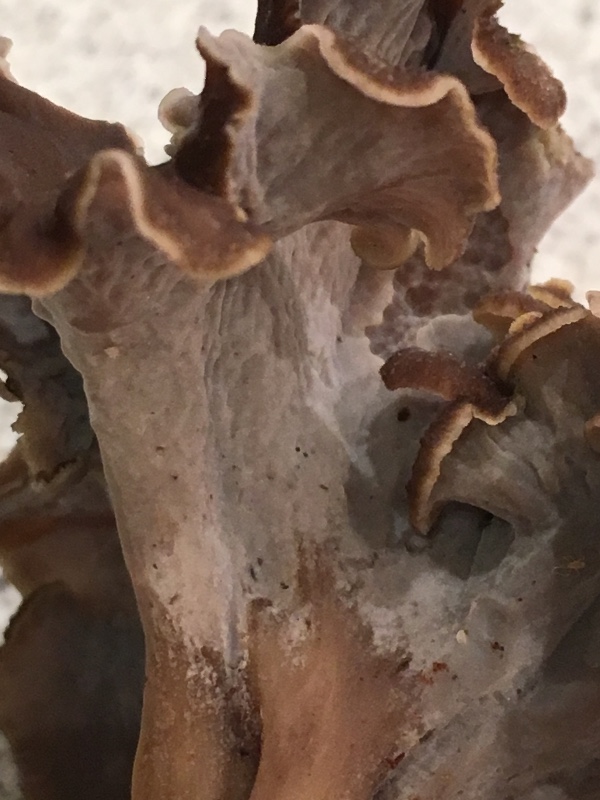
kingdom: Fungi
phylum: Basidiomycota
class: Agaricomycetes
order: Cantharellales
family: Hydnaceae
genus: Craterellus
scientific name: Craterellus undulatus
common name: liden kantarel
